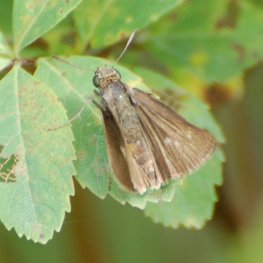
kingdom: Animalia
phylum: Arthropoda
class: Insecta
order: Lepidoptera
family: Hesperiidae
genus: Euphyes
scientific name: Euphyes vestris
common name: Dun Skipper
